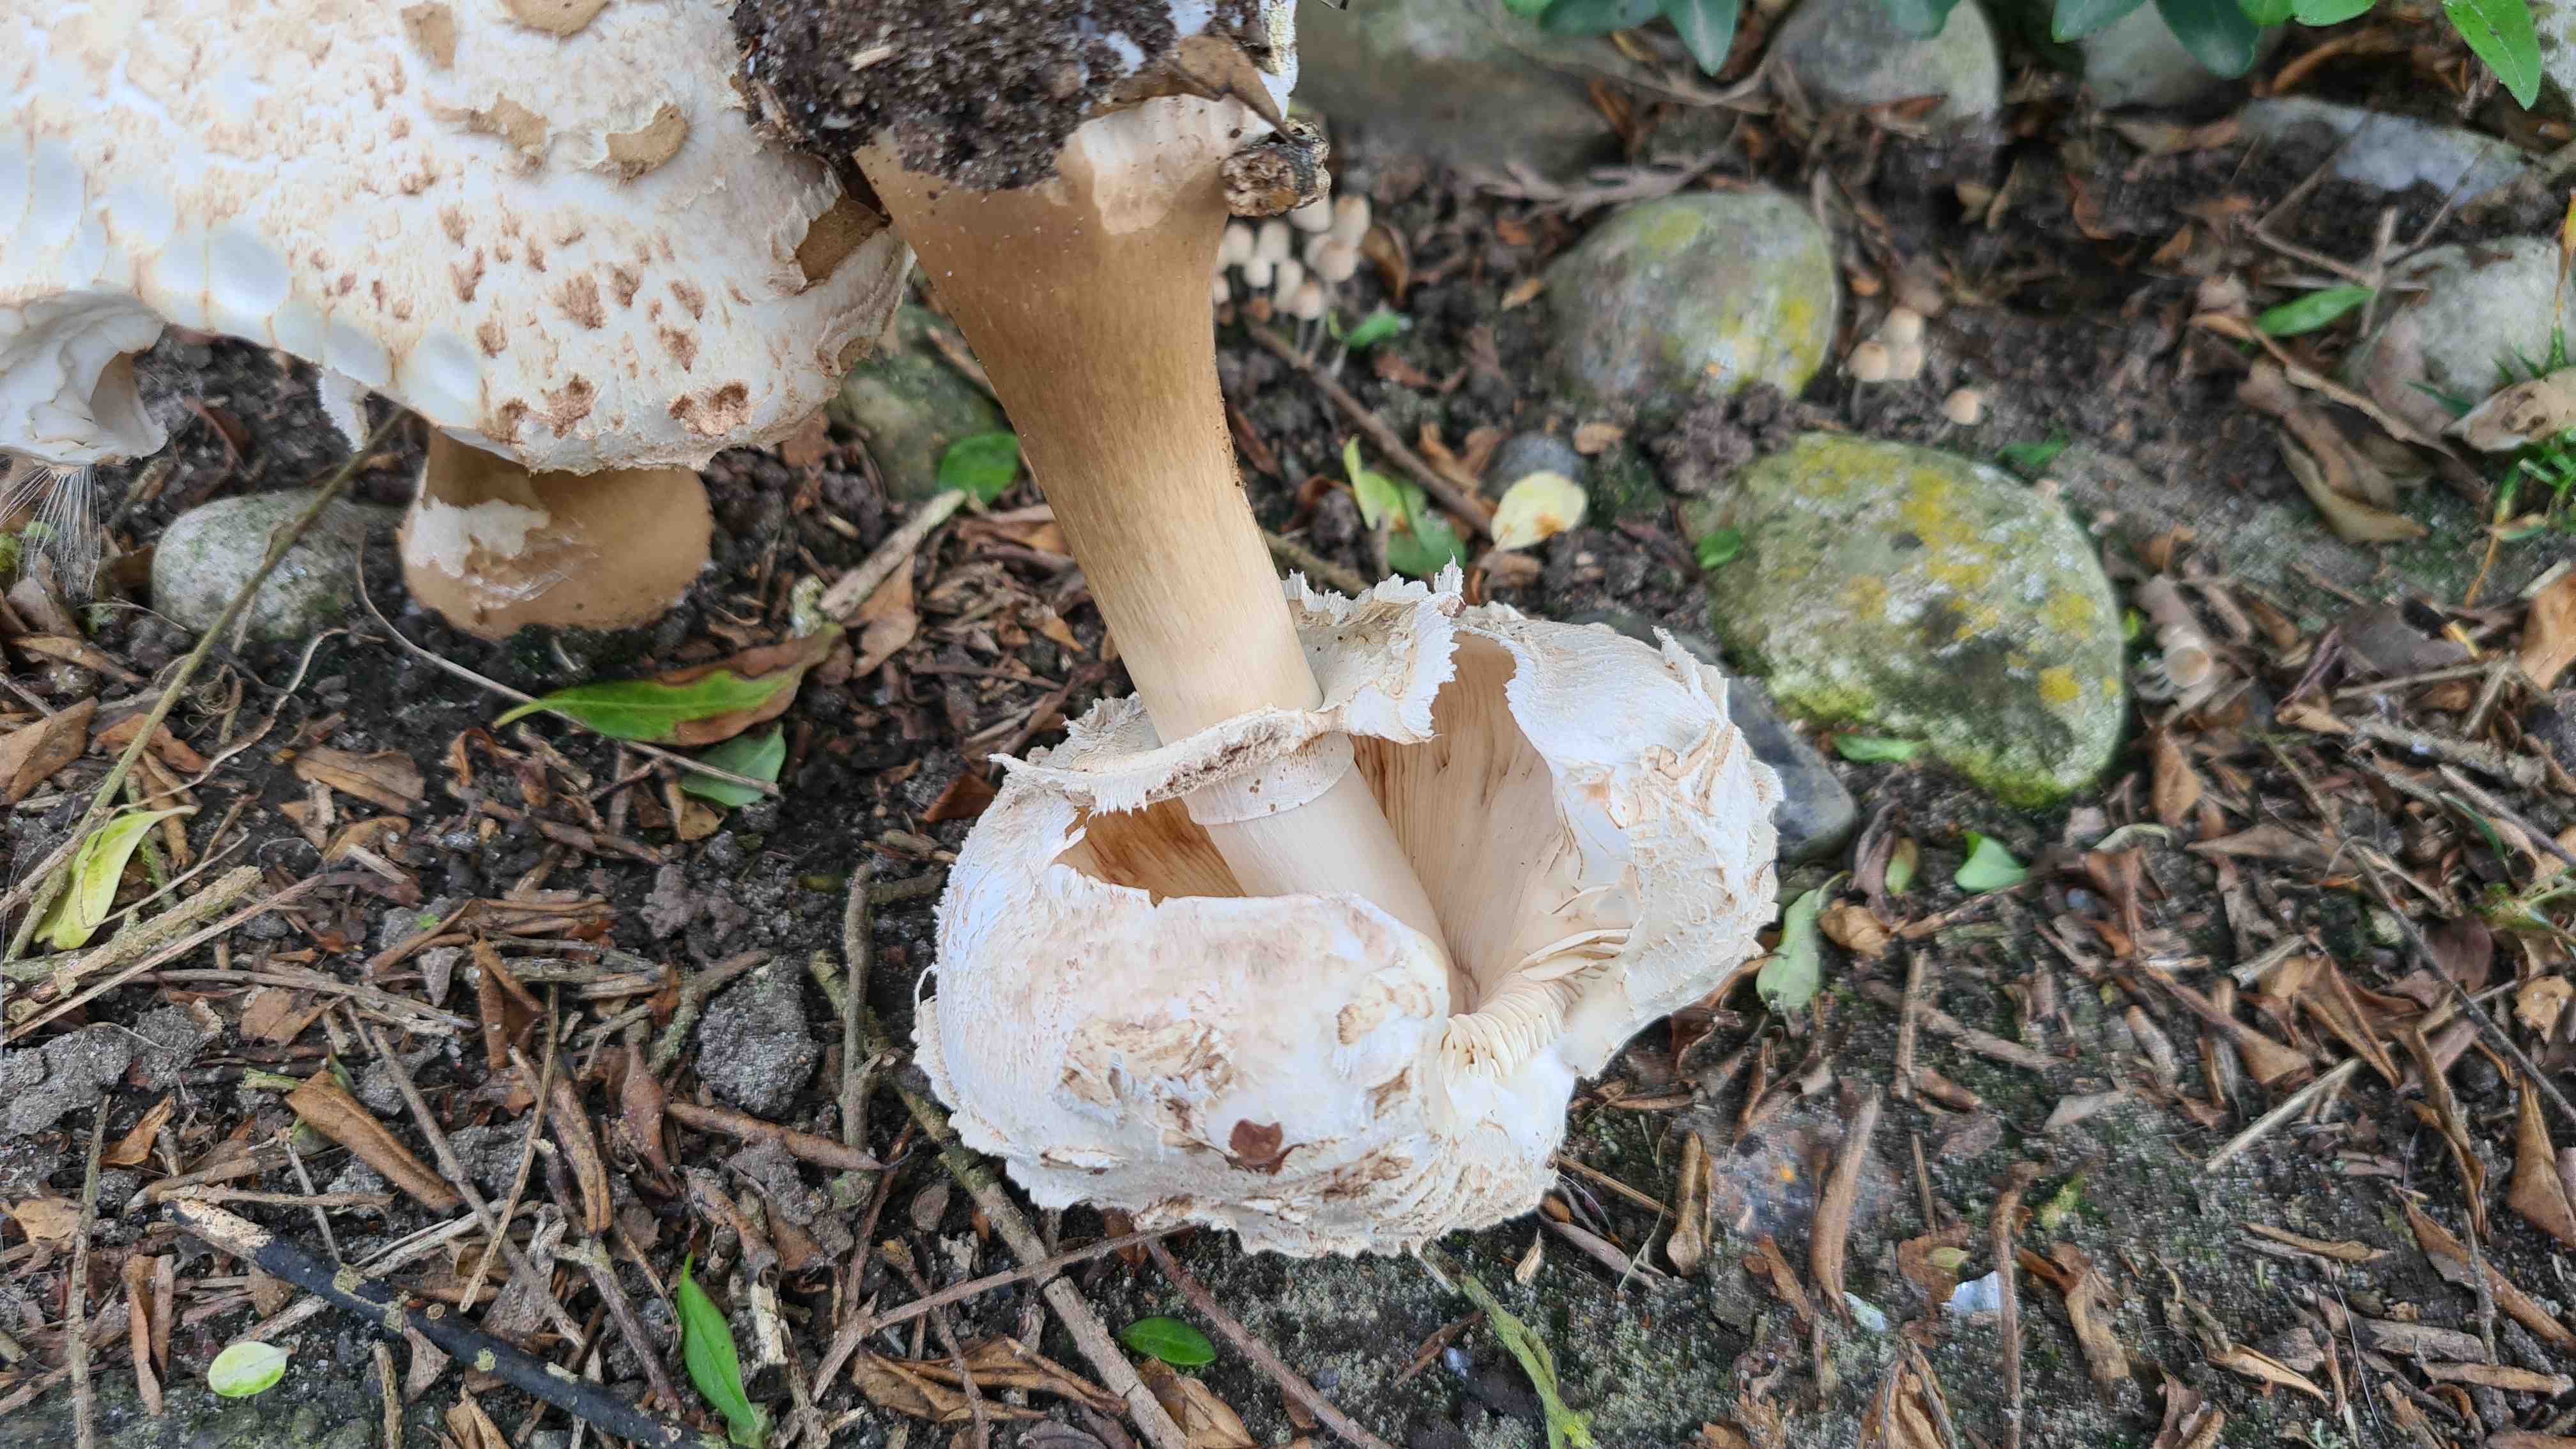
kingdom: Fungi
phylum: Basidiomycota
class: Agaricomycetes
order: Agaricales
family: Agaricaceae
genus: Chlorophyllum
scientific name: Chlorophyllum rhacodes
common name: ægte rabarberhat
